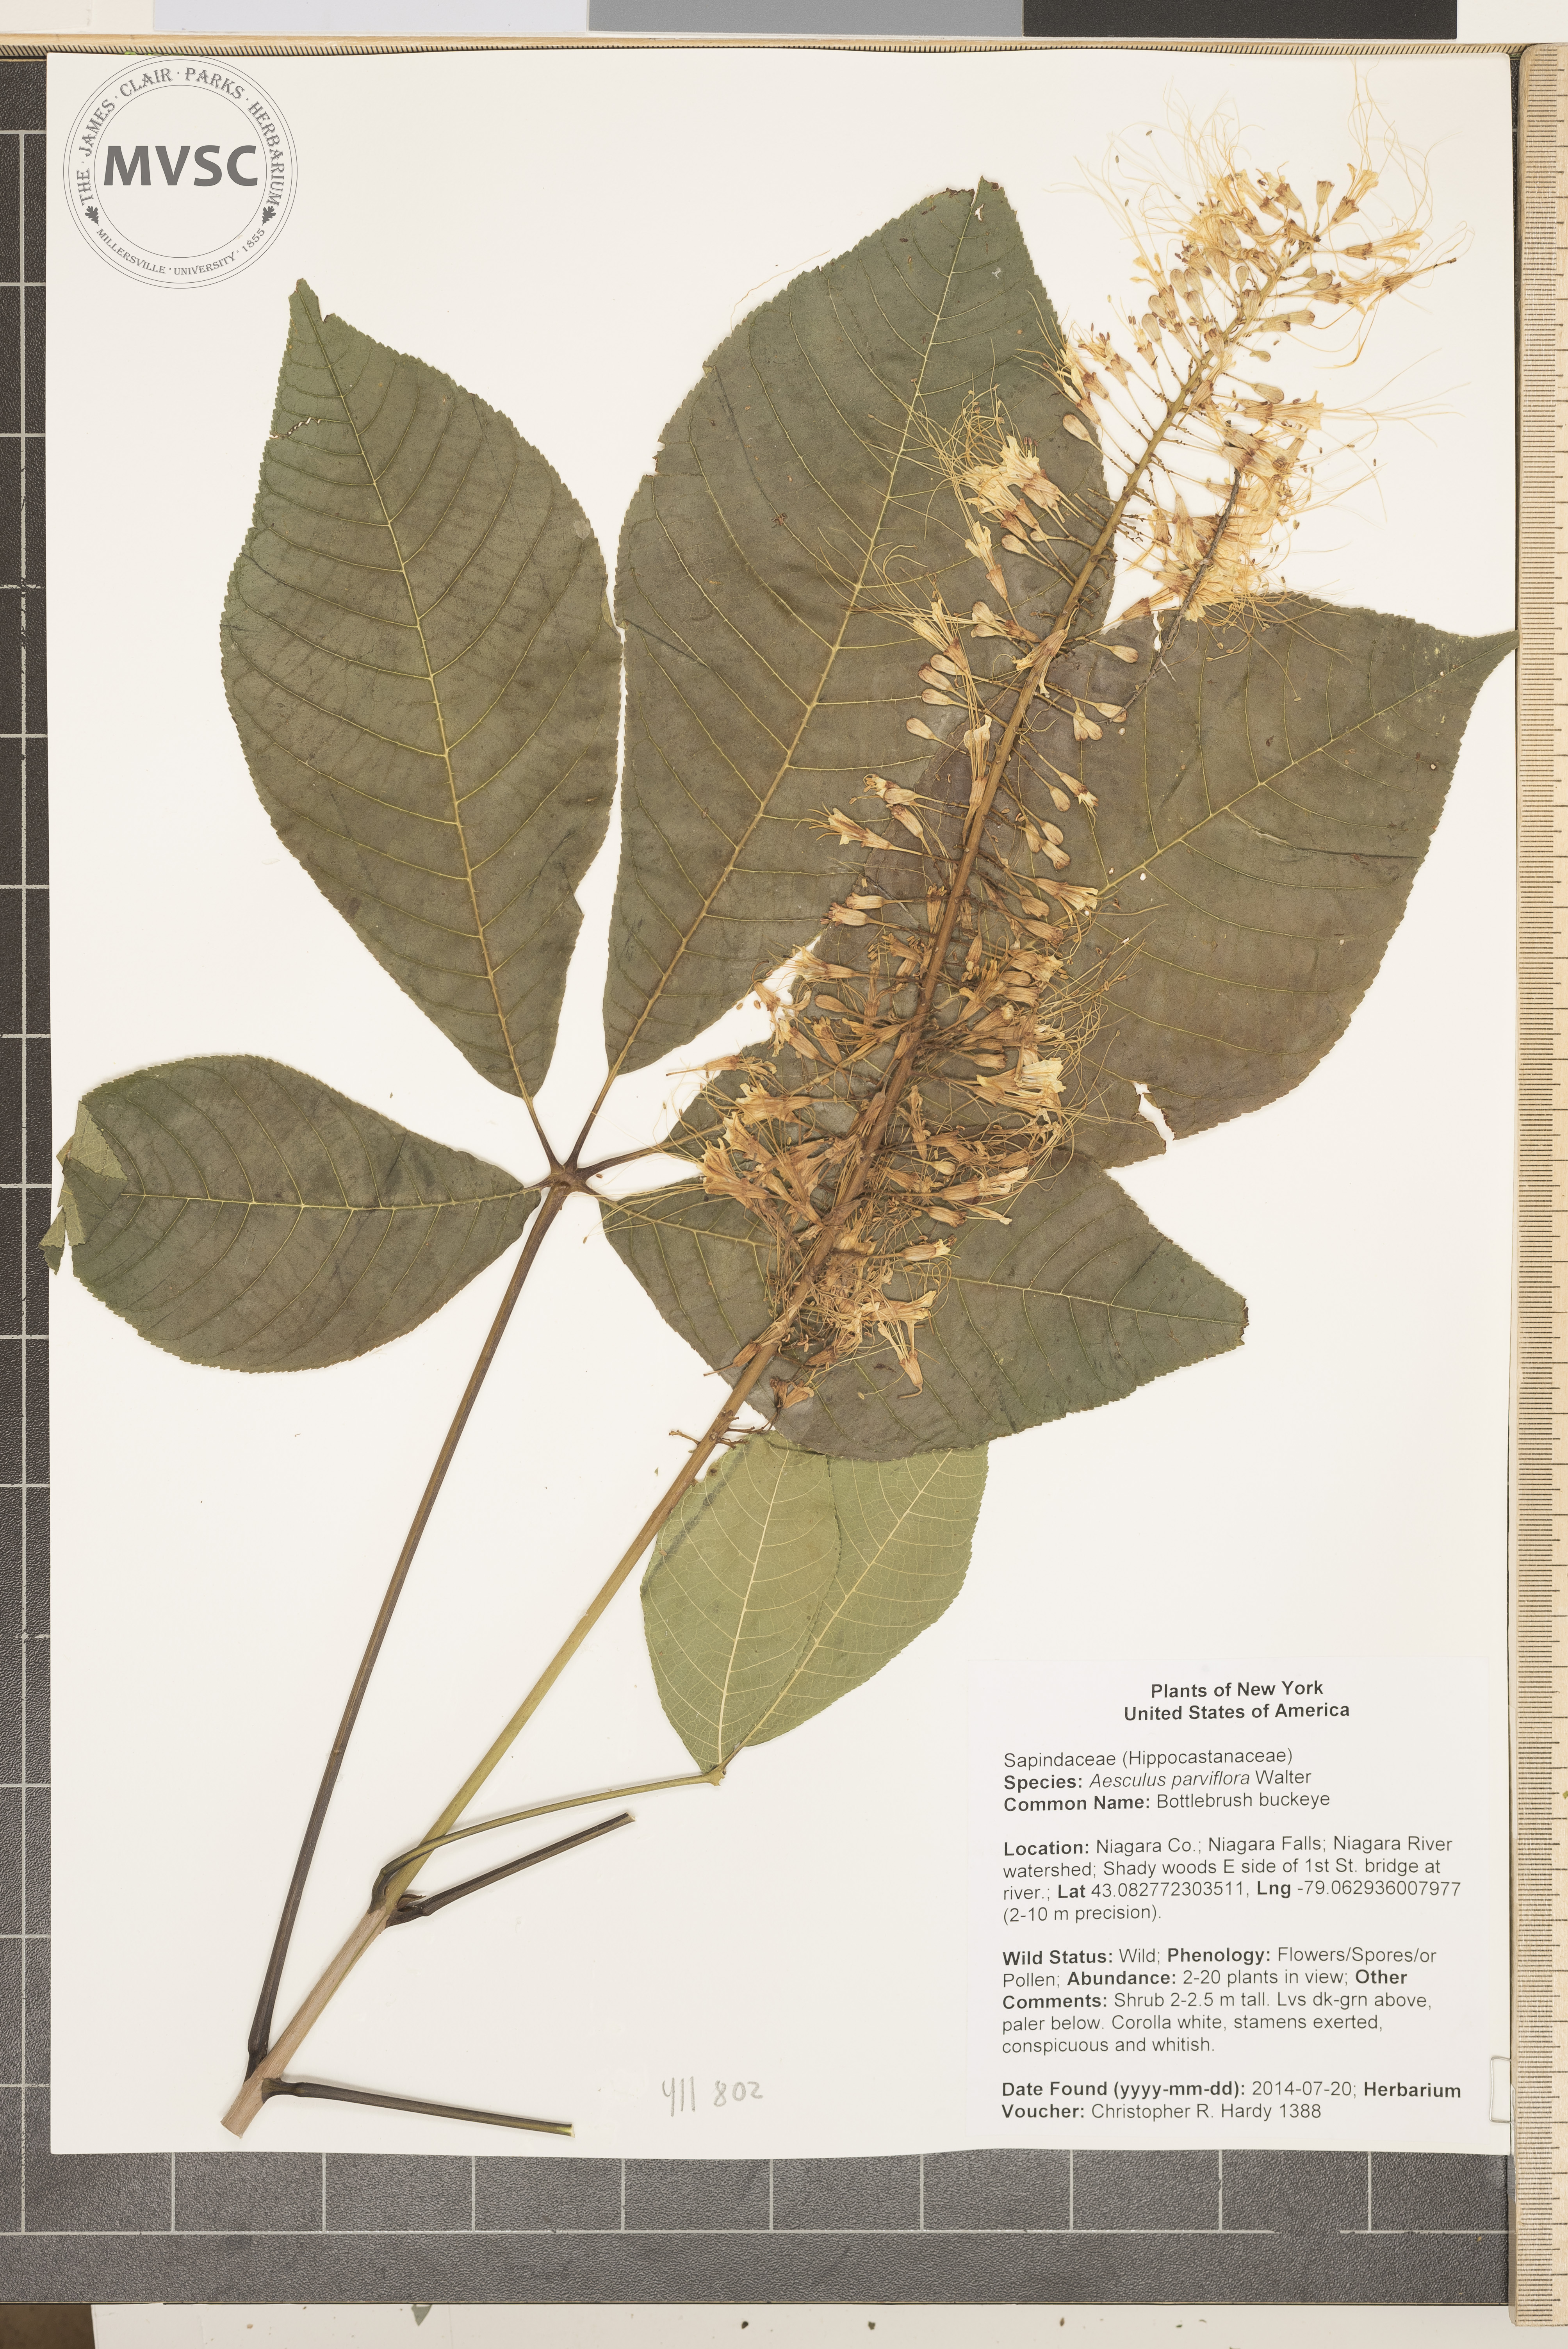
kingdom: Plantae
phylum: Tracheophyta
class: Magnoliopsida
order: Sapindales
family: Sapindaceae
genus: Aesculus
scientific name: Aesculus parviflora
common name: Bottlebrush buckeye
